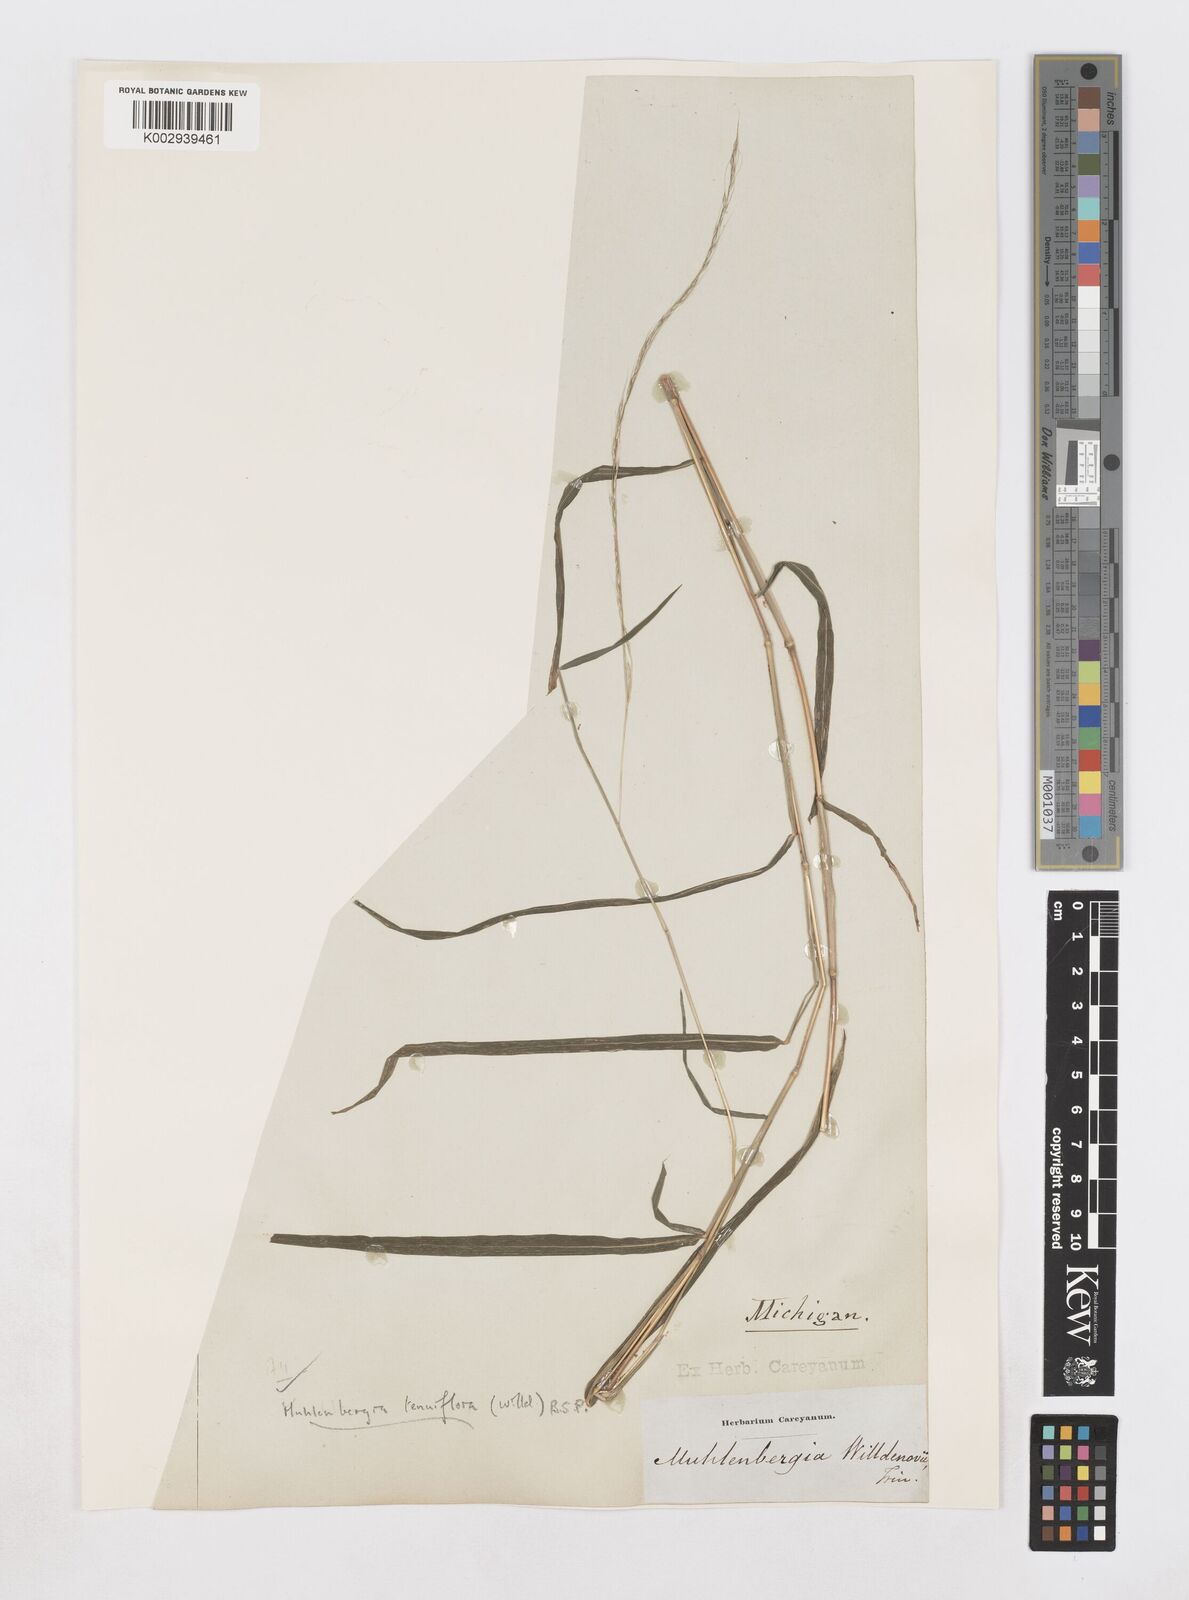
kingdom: Plantae
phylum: Tracheophyta
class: Liliopsida
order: Poales
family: Poaceae
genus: Muhlenbergia
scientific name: Muhlenbergia tenuiflora
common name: Slender muhly
